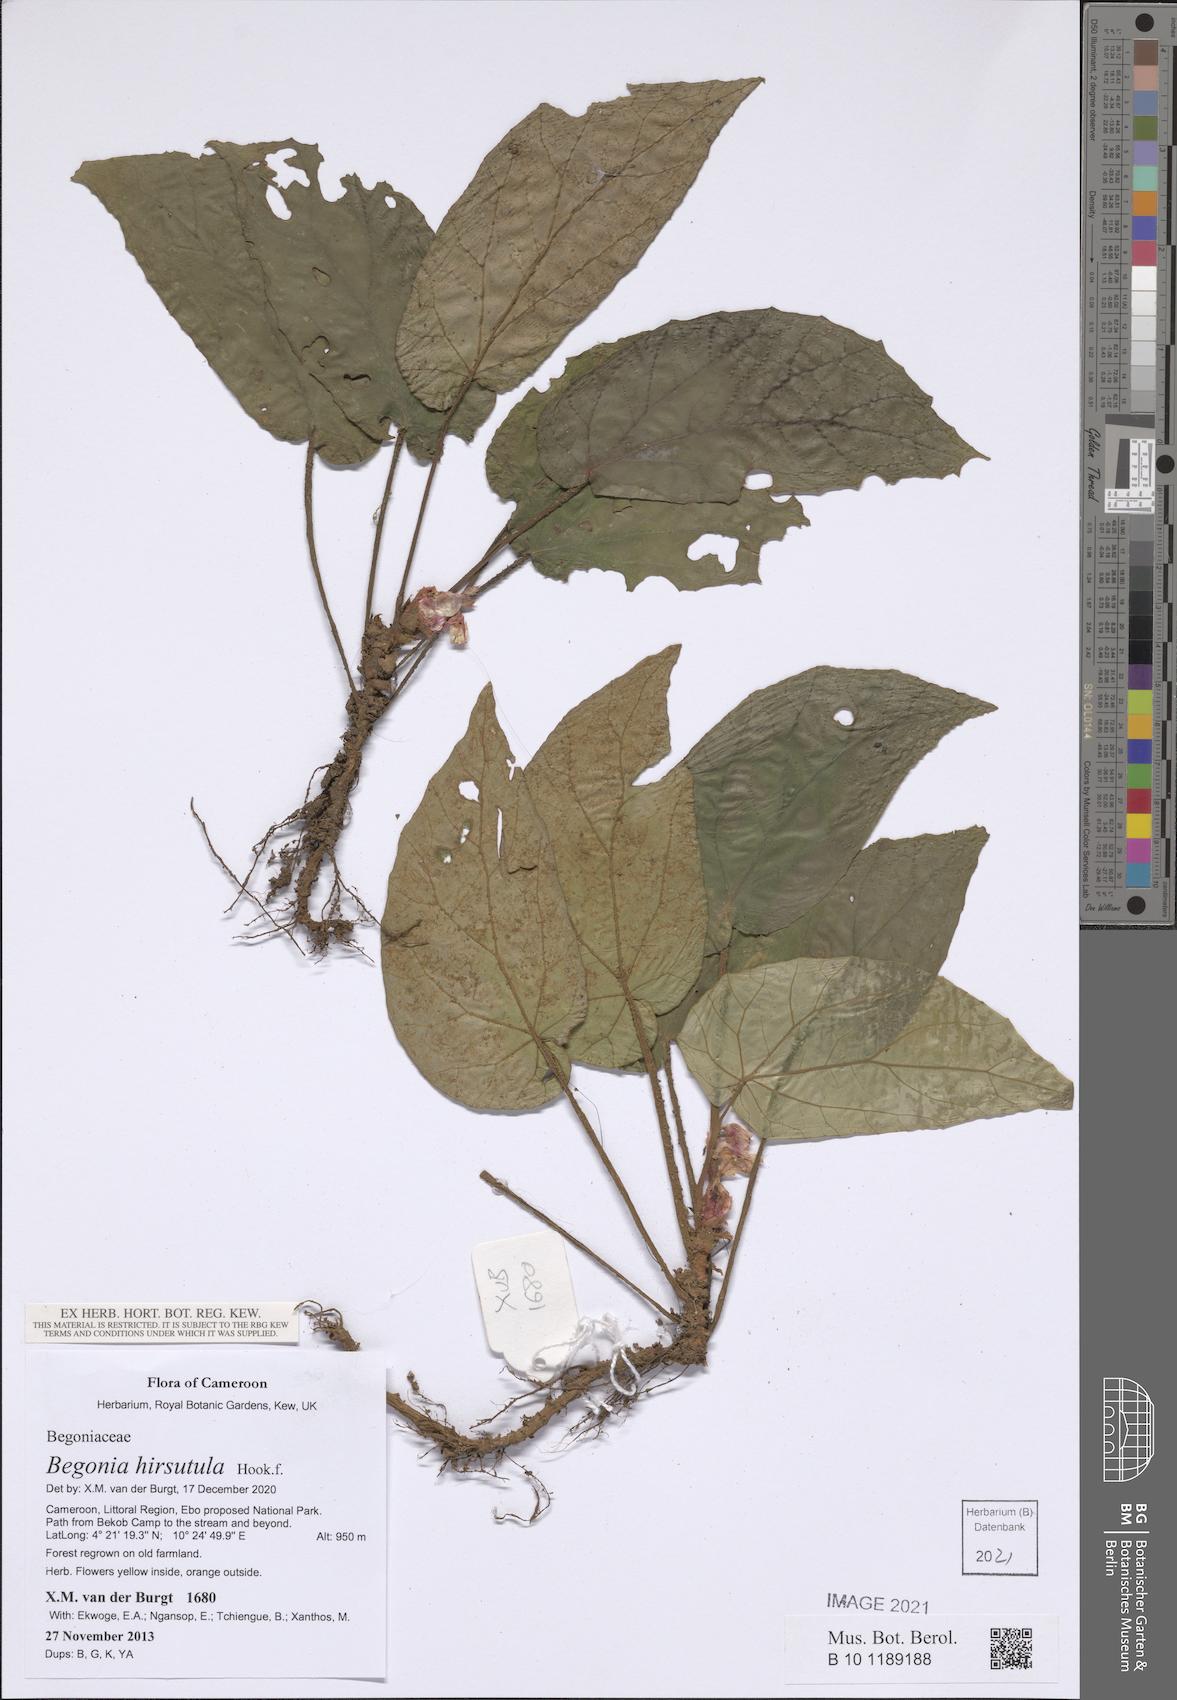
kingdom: Plantae
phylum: Tracheophyta
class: Magnoliopsida
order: Cucurbitales
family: Begoniaceae
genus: Begonia
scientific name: Begonia hirsutula
